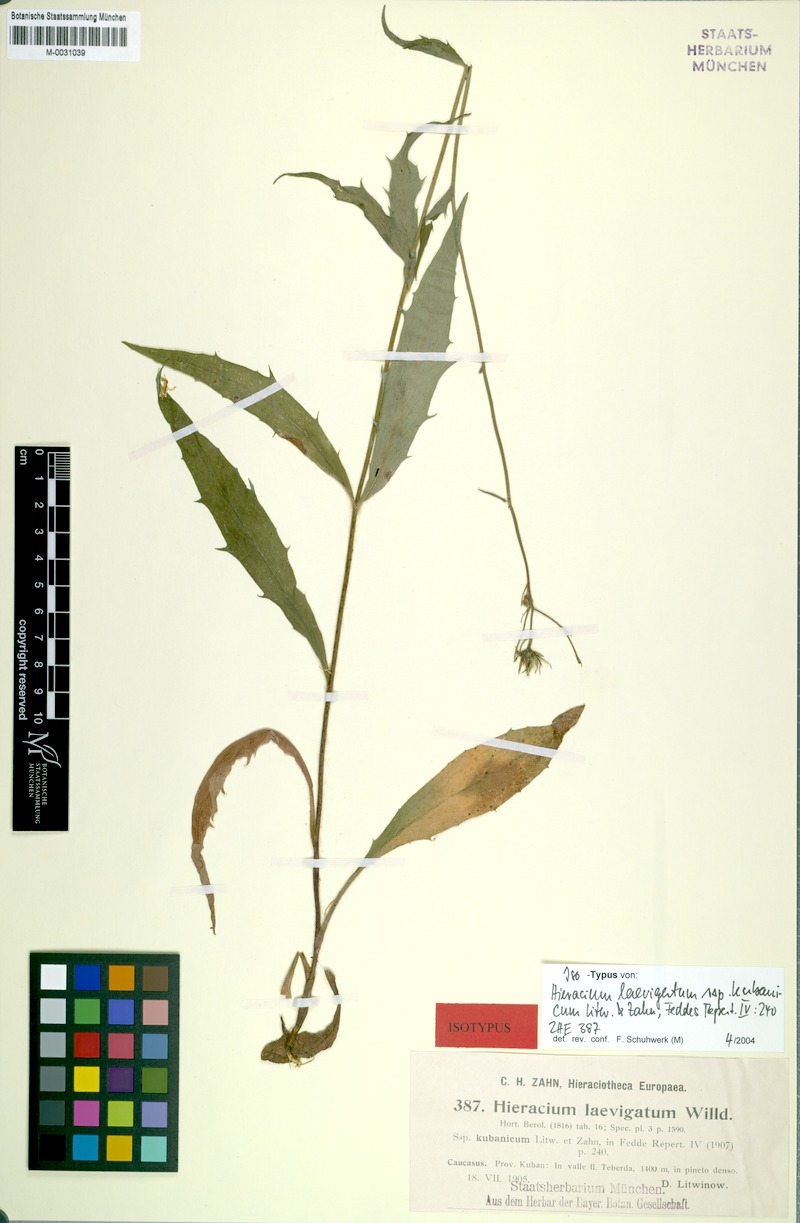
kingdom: Plantae
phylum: Tracheophyta
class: Magnoliopsida
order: Asterales
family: Asteraceae
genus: Hieracium
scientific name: Hieracium laevigatum
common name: Smooth hawkweed
